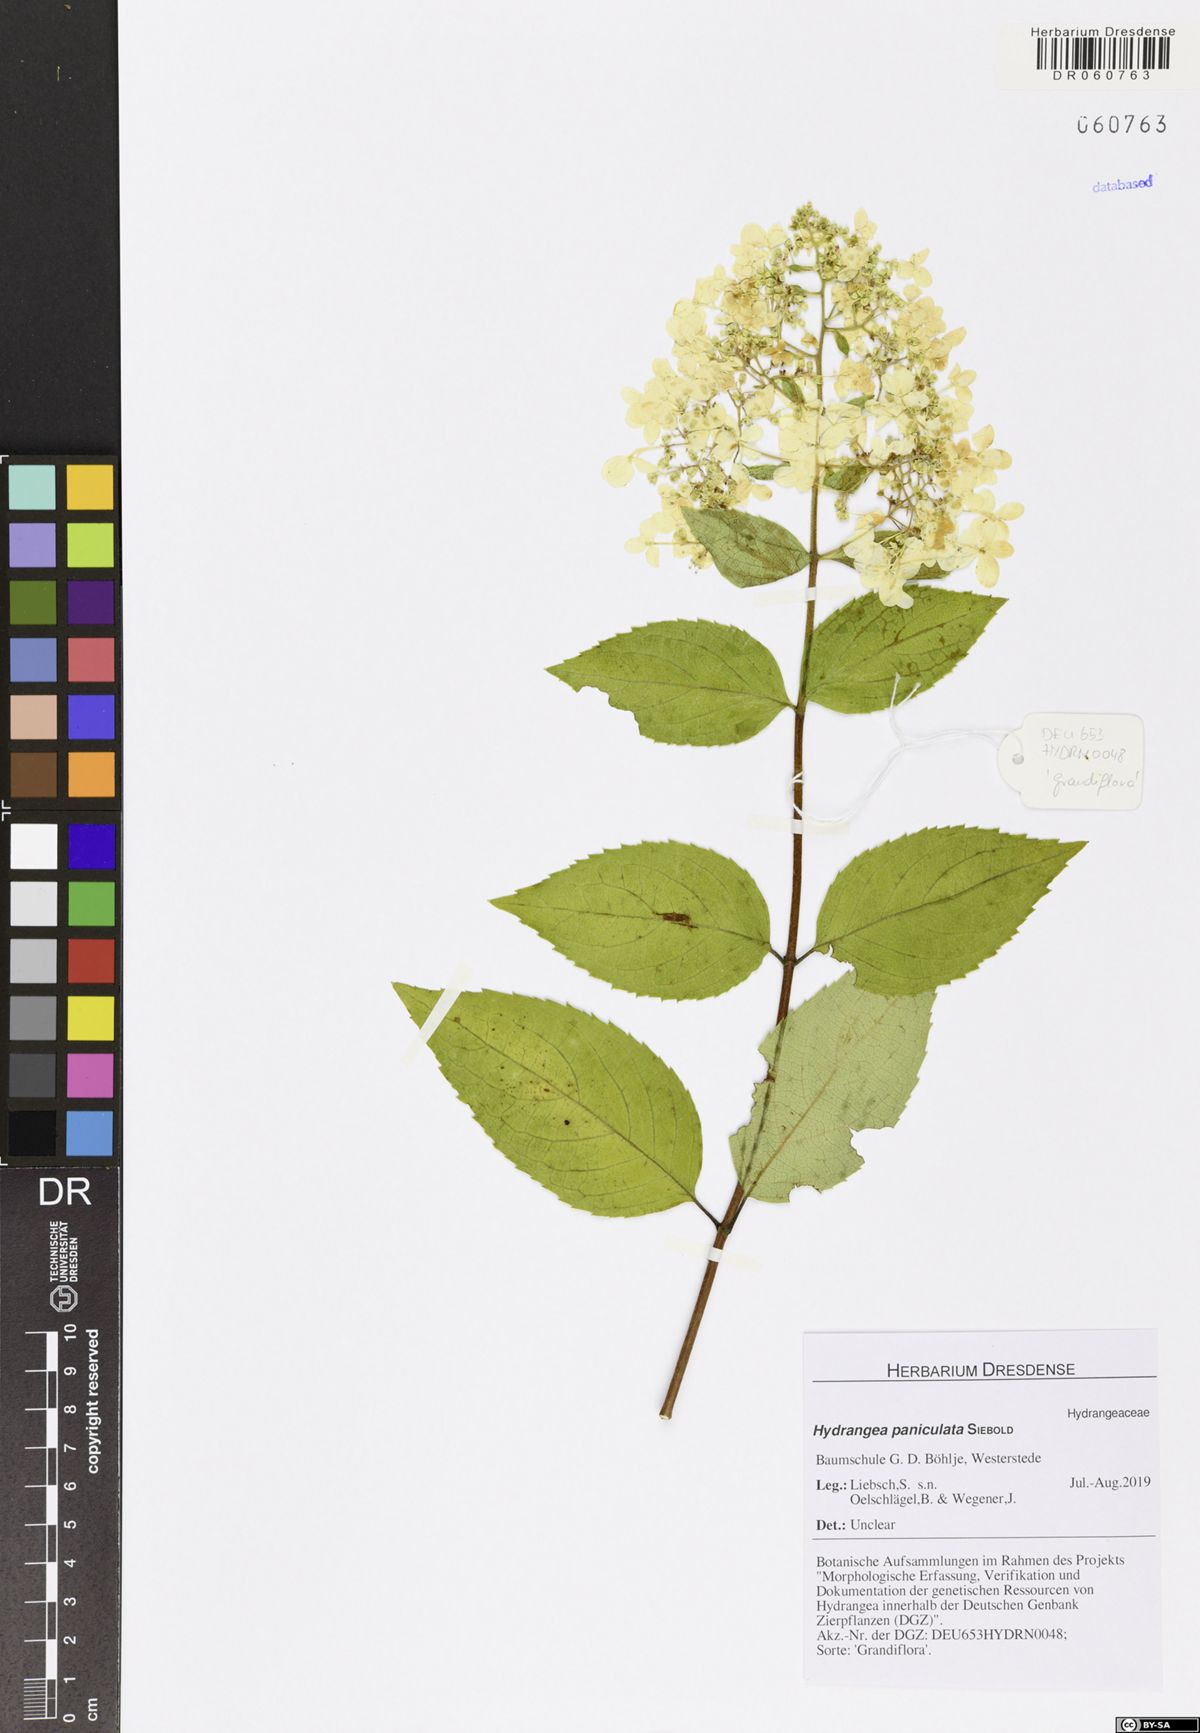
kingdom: Plantae
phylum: Tracheophyta
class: Magnoliopsida
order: Cornales
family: Hydrangeaceae
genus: Hydrangea
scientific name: Hydrangea paniculata
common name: Panicled hydrangea
